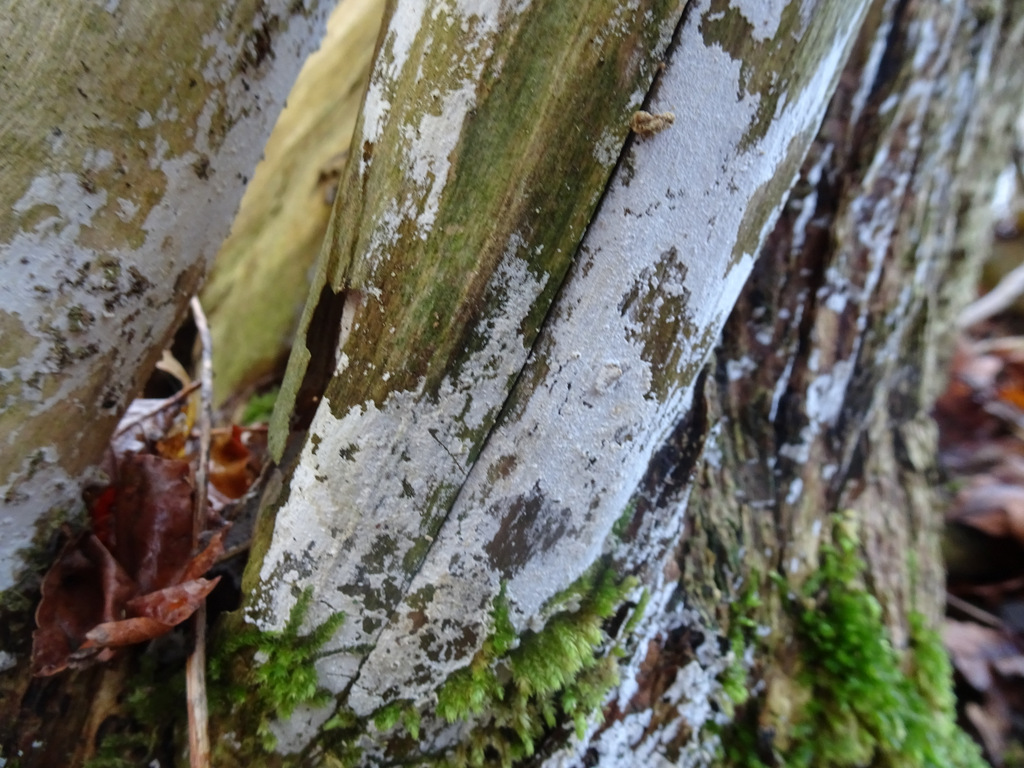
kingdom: Fungi
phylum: Basidiomycota
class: Agaricomycetes
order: Corticiales
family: Corticiaceae
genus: Lyomyces
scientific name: Lyomyces sambuci
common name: almindelig hyldehinde
